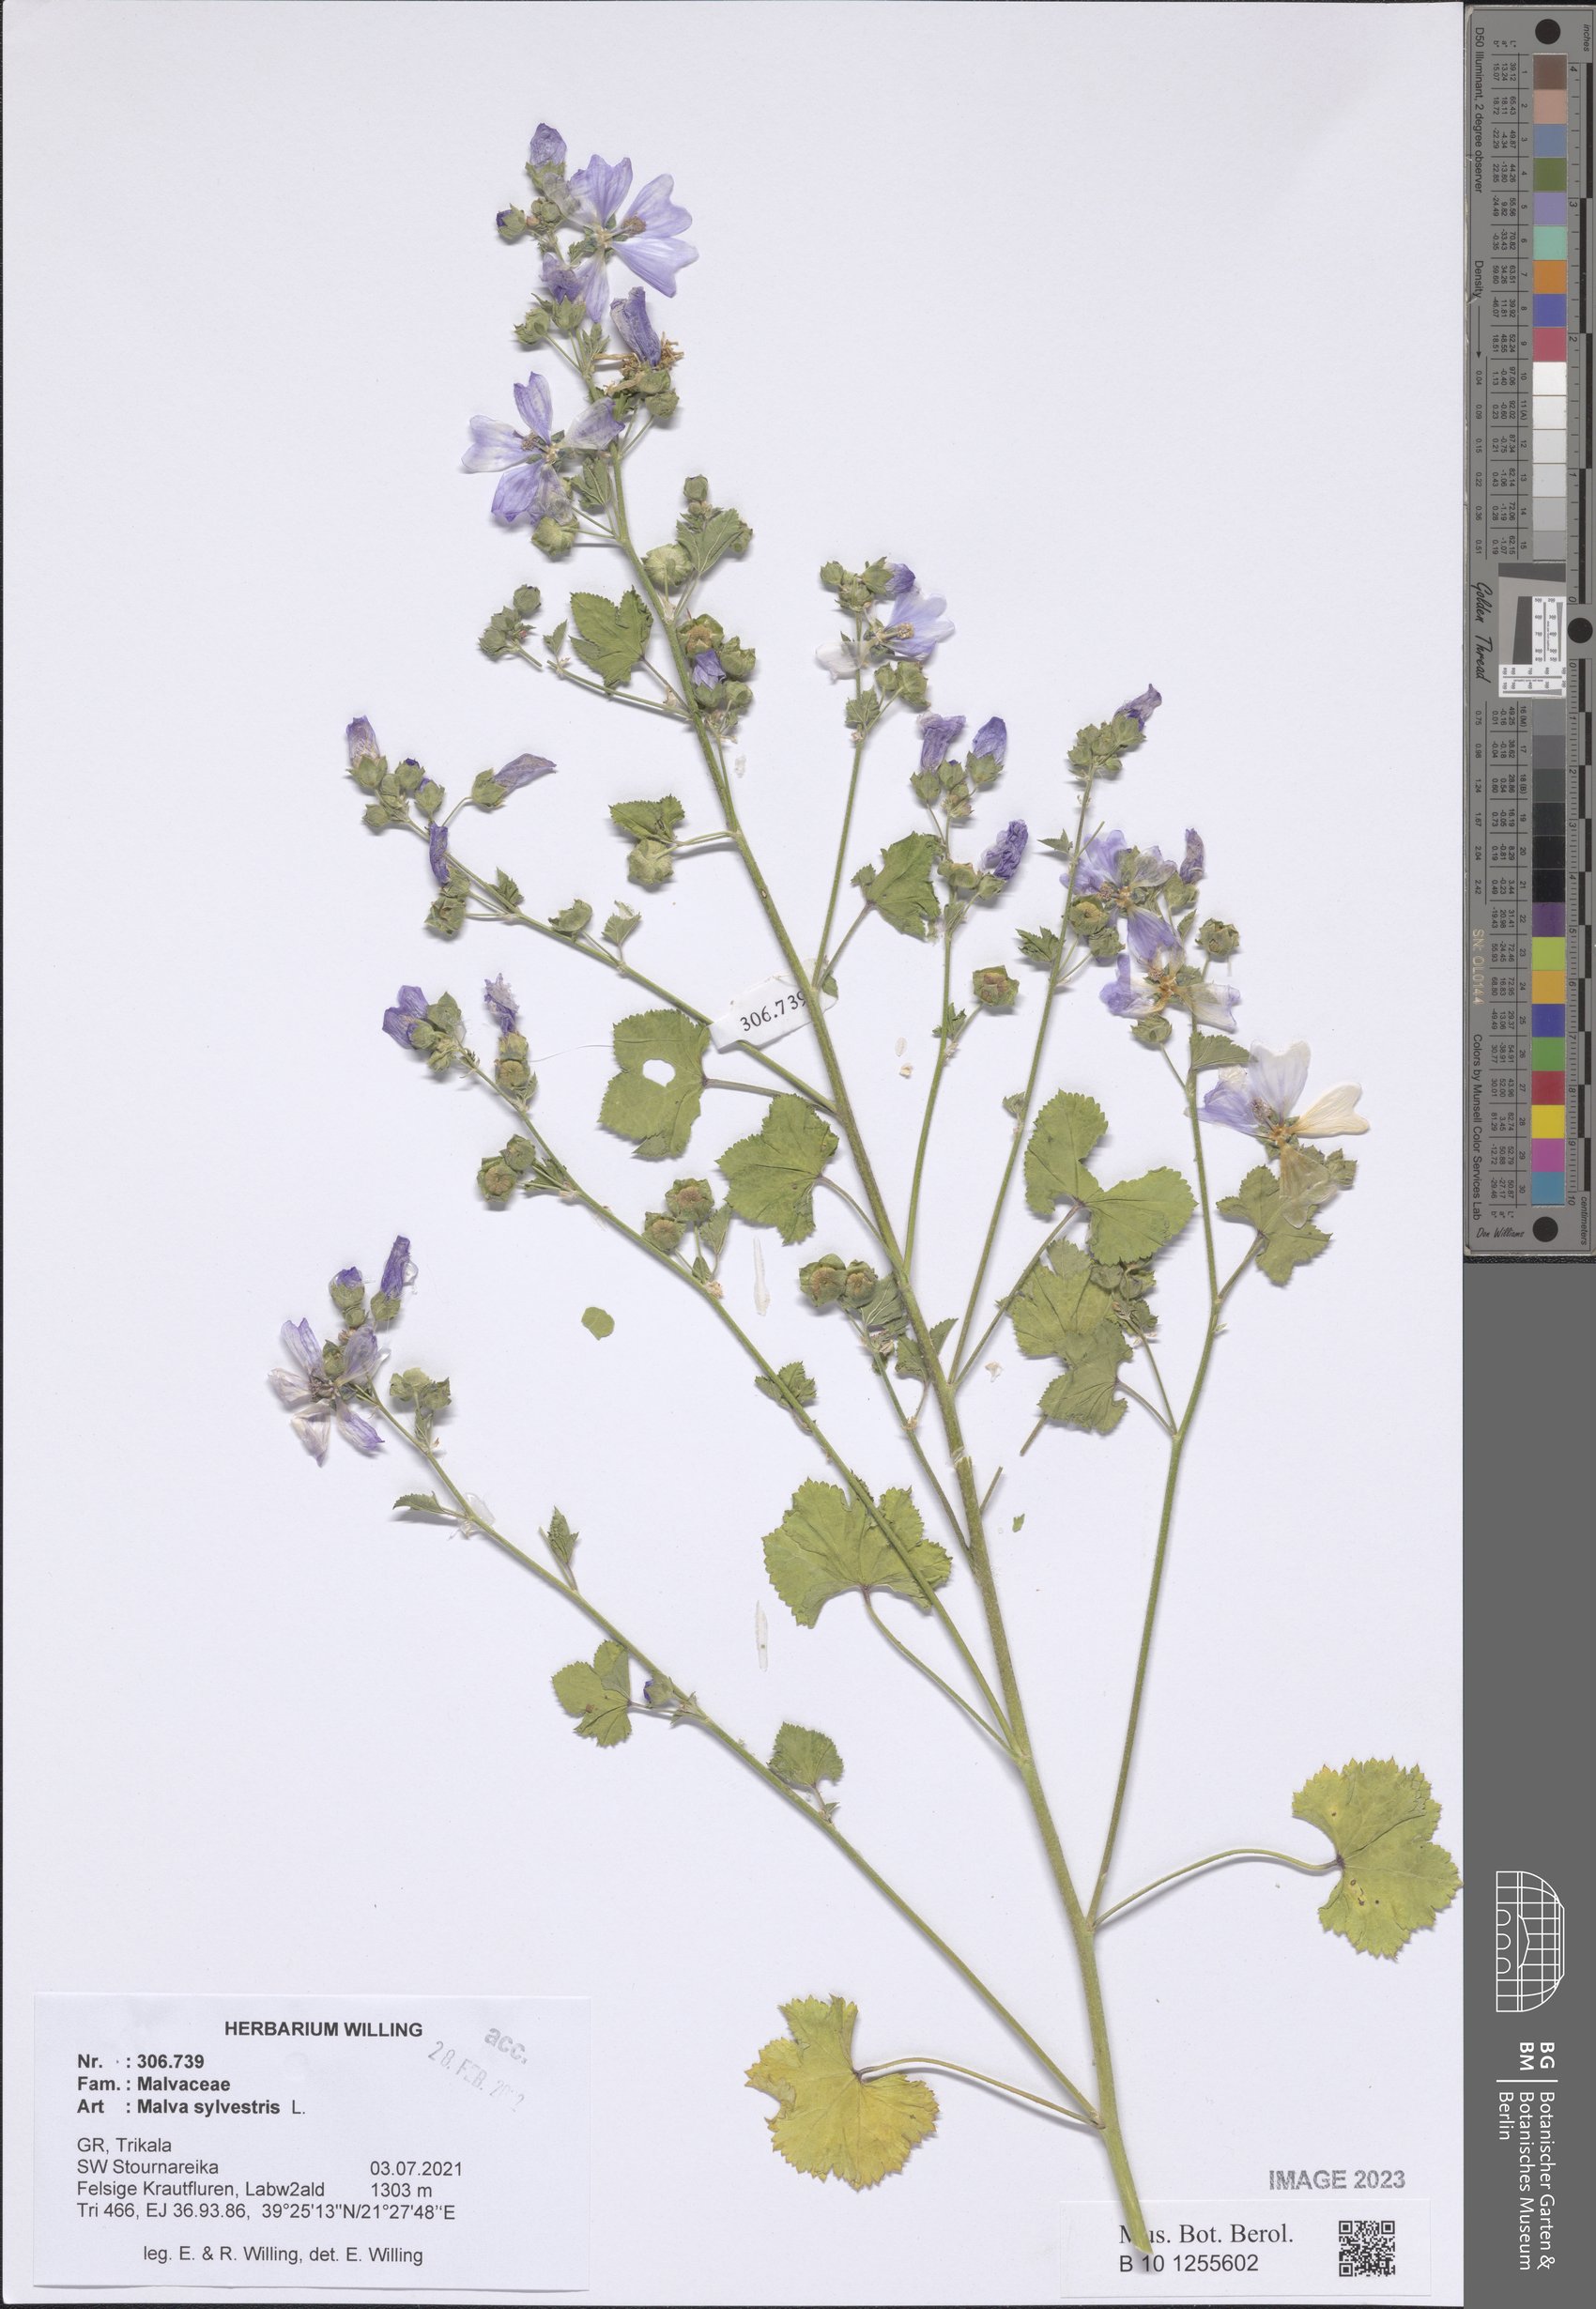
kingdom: Plantae
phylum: Tracheophyta
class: Magnoliopsida
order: Malvales
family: Malvaceae
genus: Malva
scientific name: Malva sylvestris
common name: Common mallow
